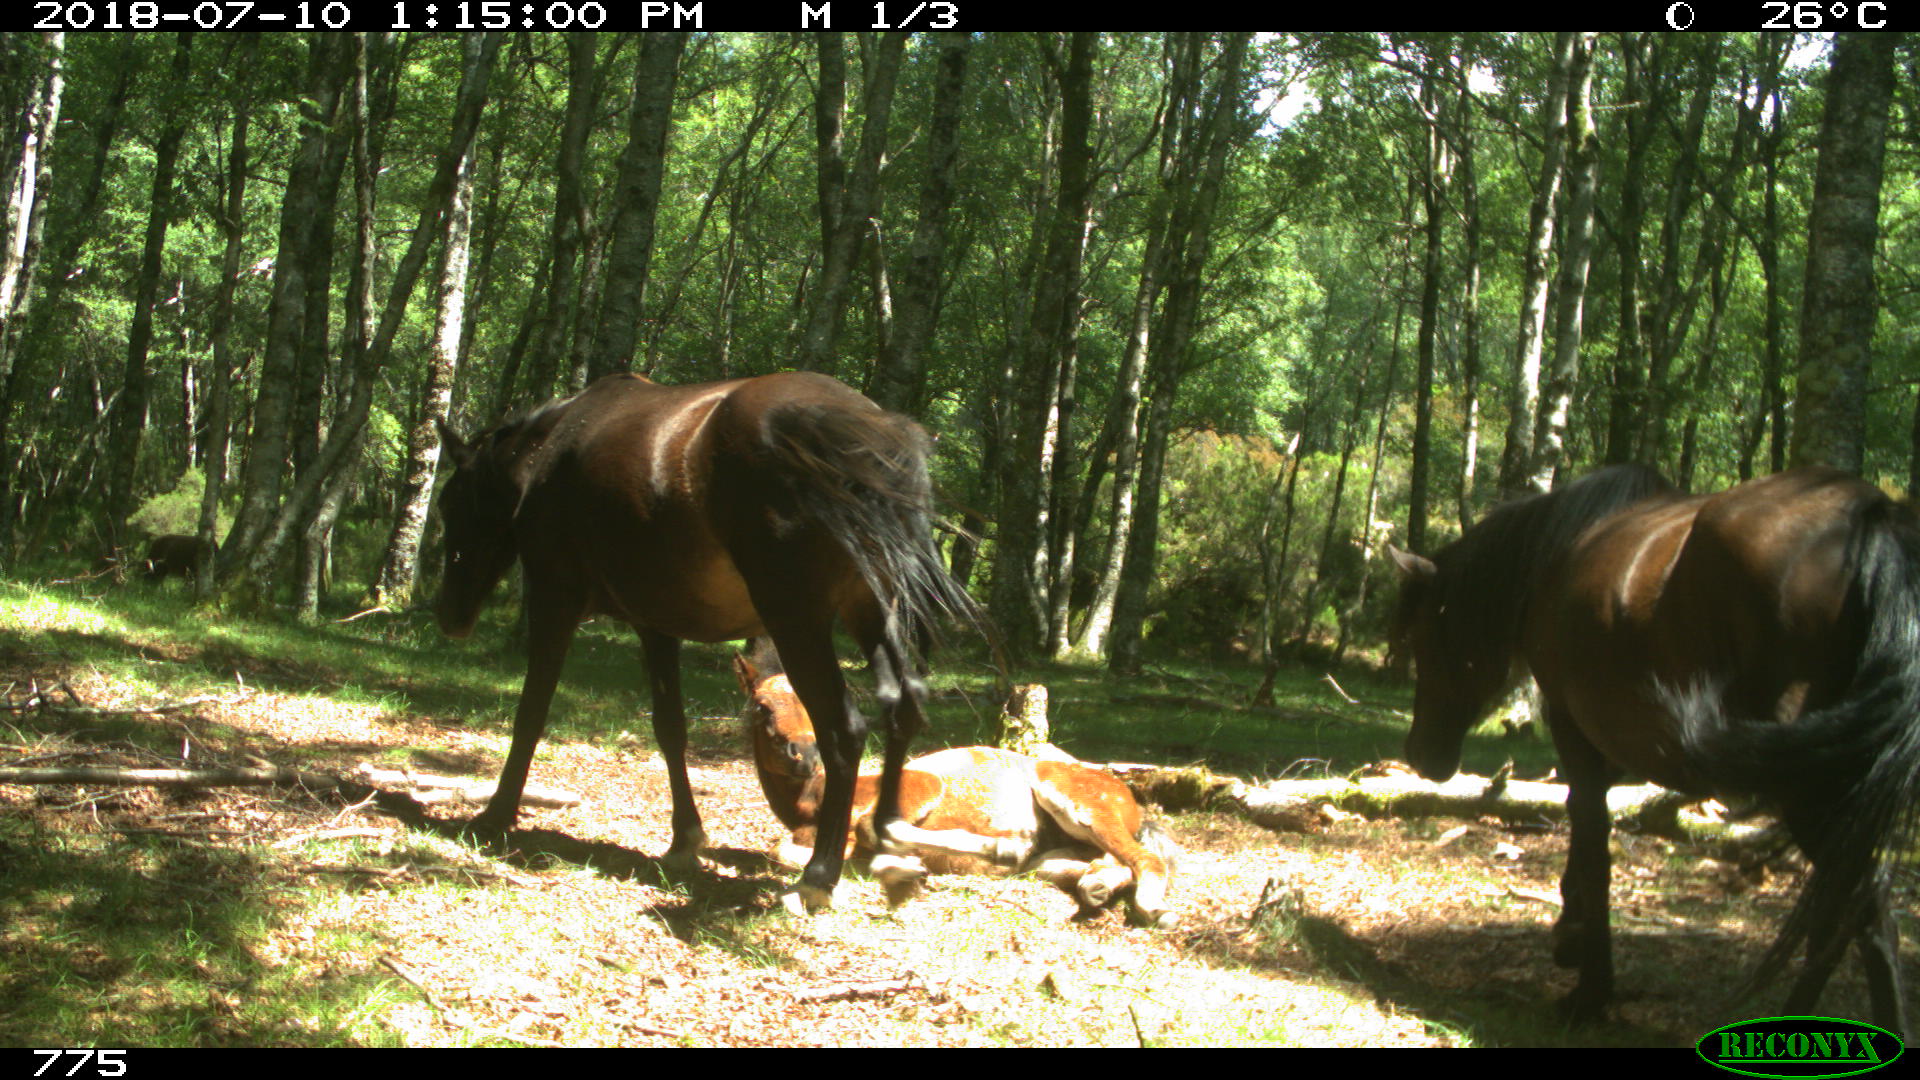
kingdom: Animalia
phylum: Chordata
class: Mammalia
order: Perissodactyla
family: Equidae
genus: Equus
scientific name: Equus caballus
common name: Horse
